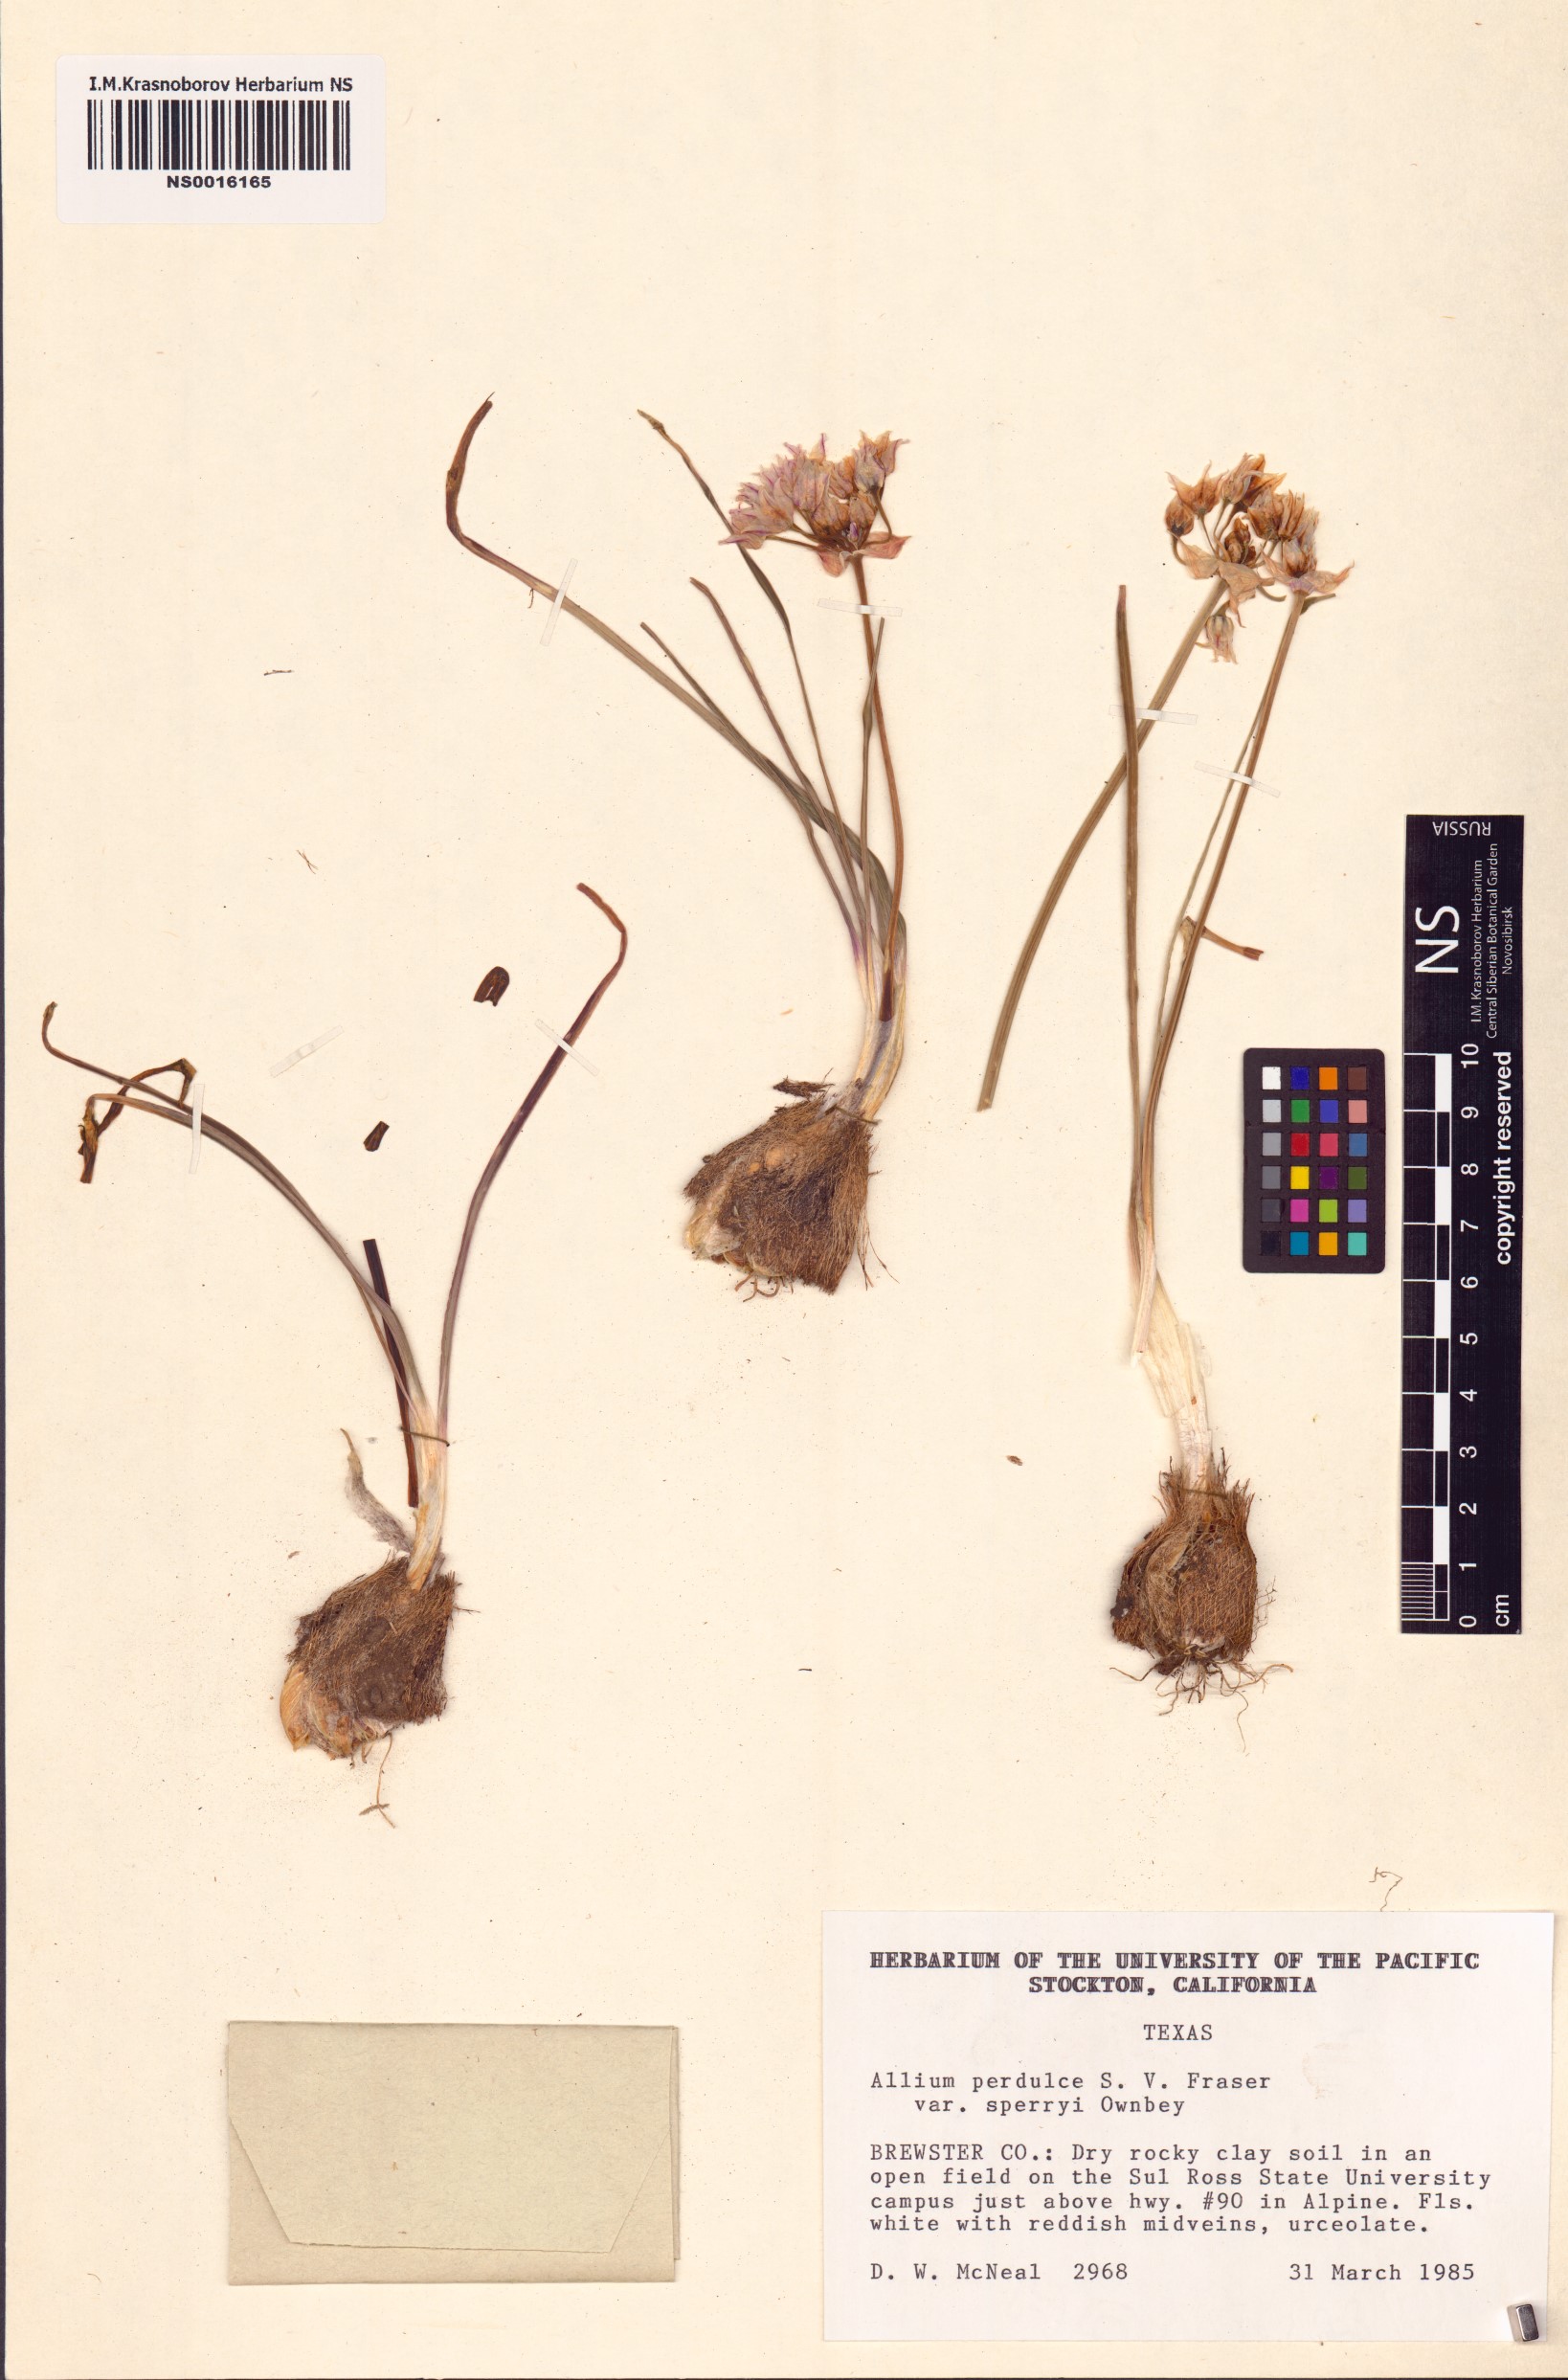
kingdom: Plantae
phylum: Tracheophyta
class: Liliopsida
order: Asparagales
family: Amaryllidaceae
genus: Allium
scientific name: Allium perdulce
